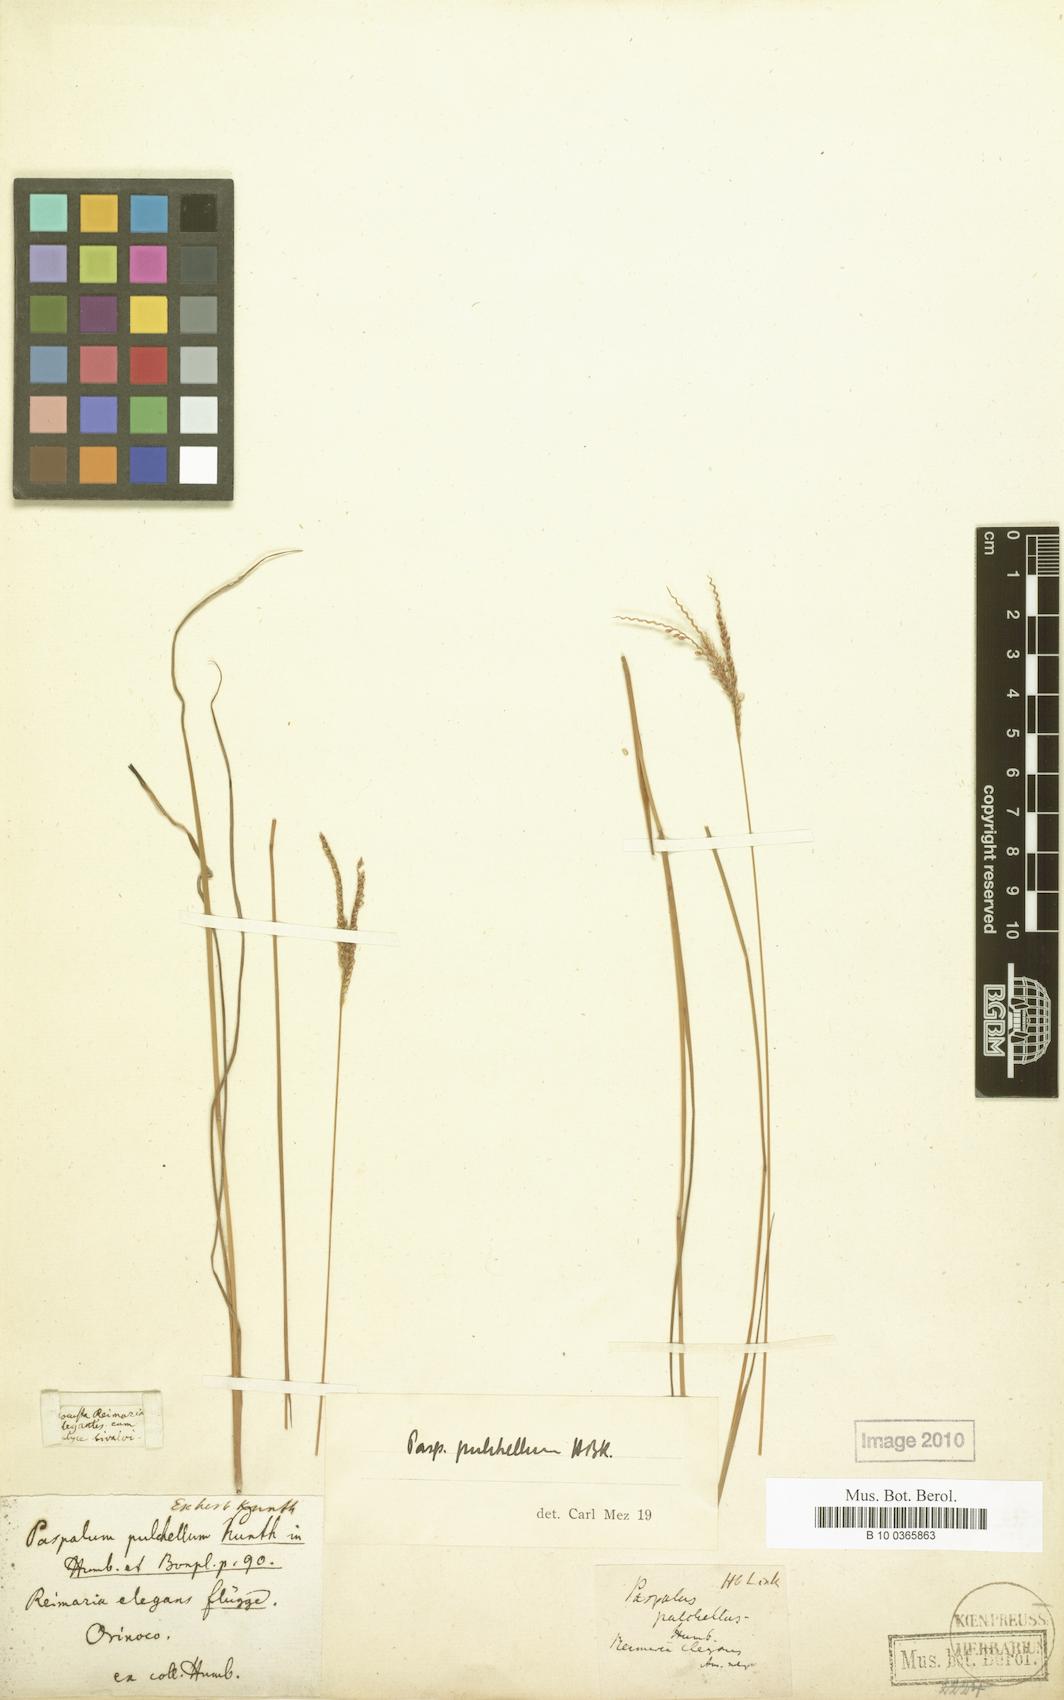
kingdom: Plantae
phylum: Tracheophyta
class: Liliopsida
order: Poales
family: Poaceae
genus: Paspalum
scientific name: Paspalum pulchellum
